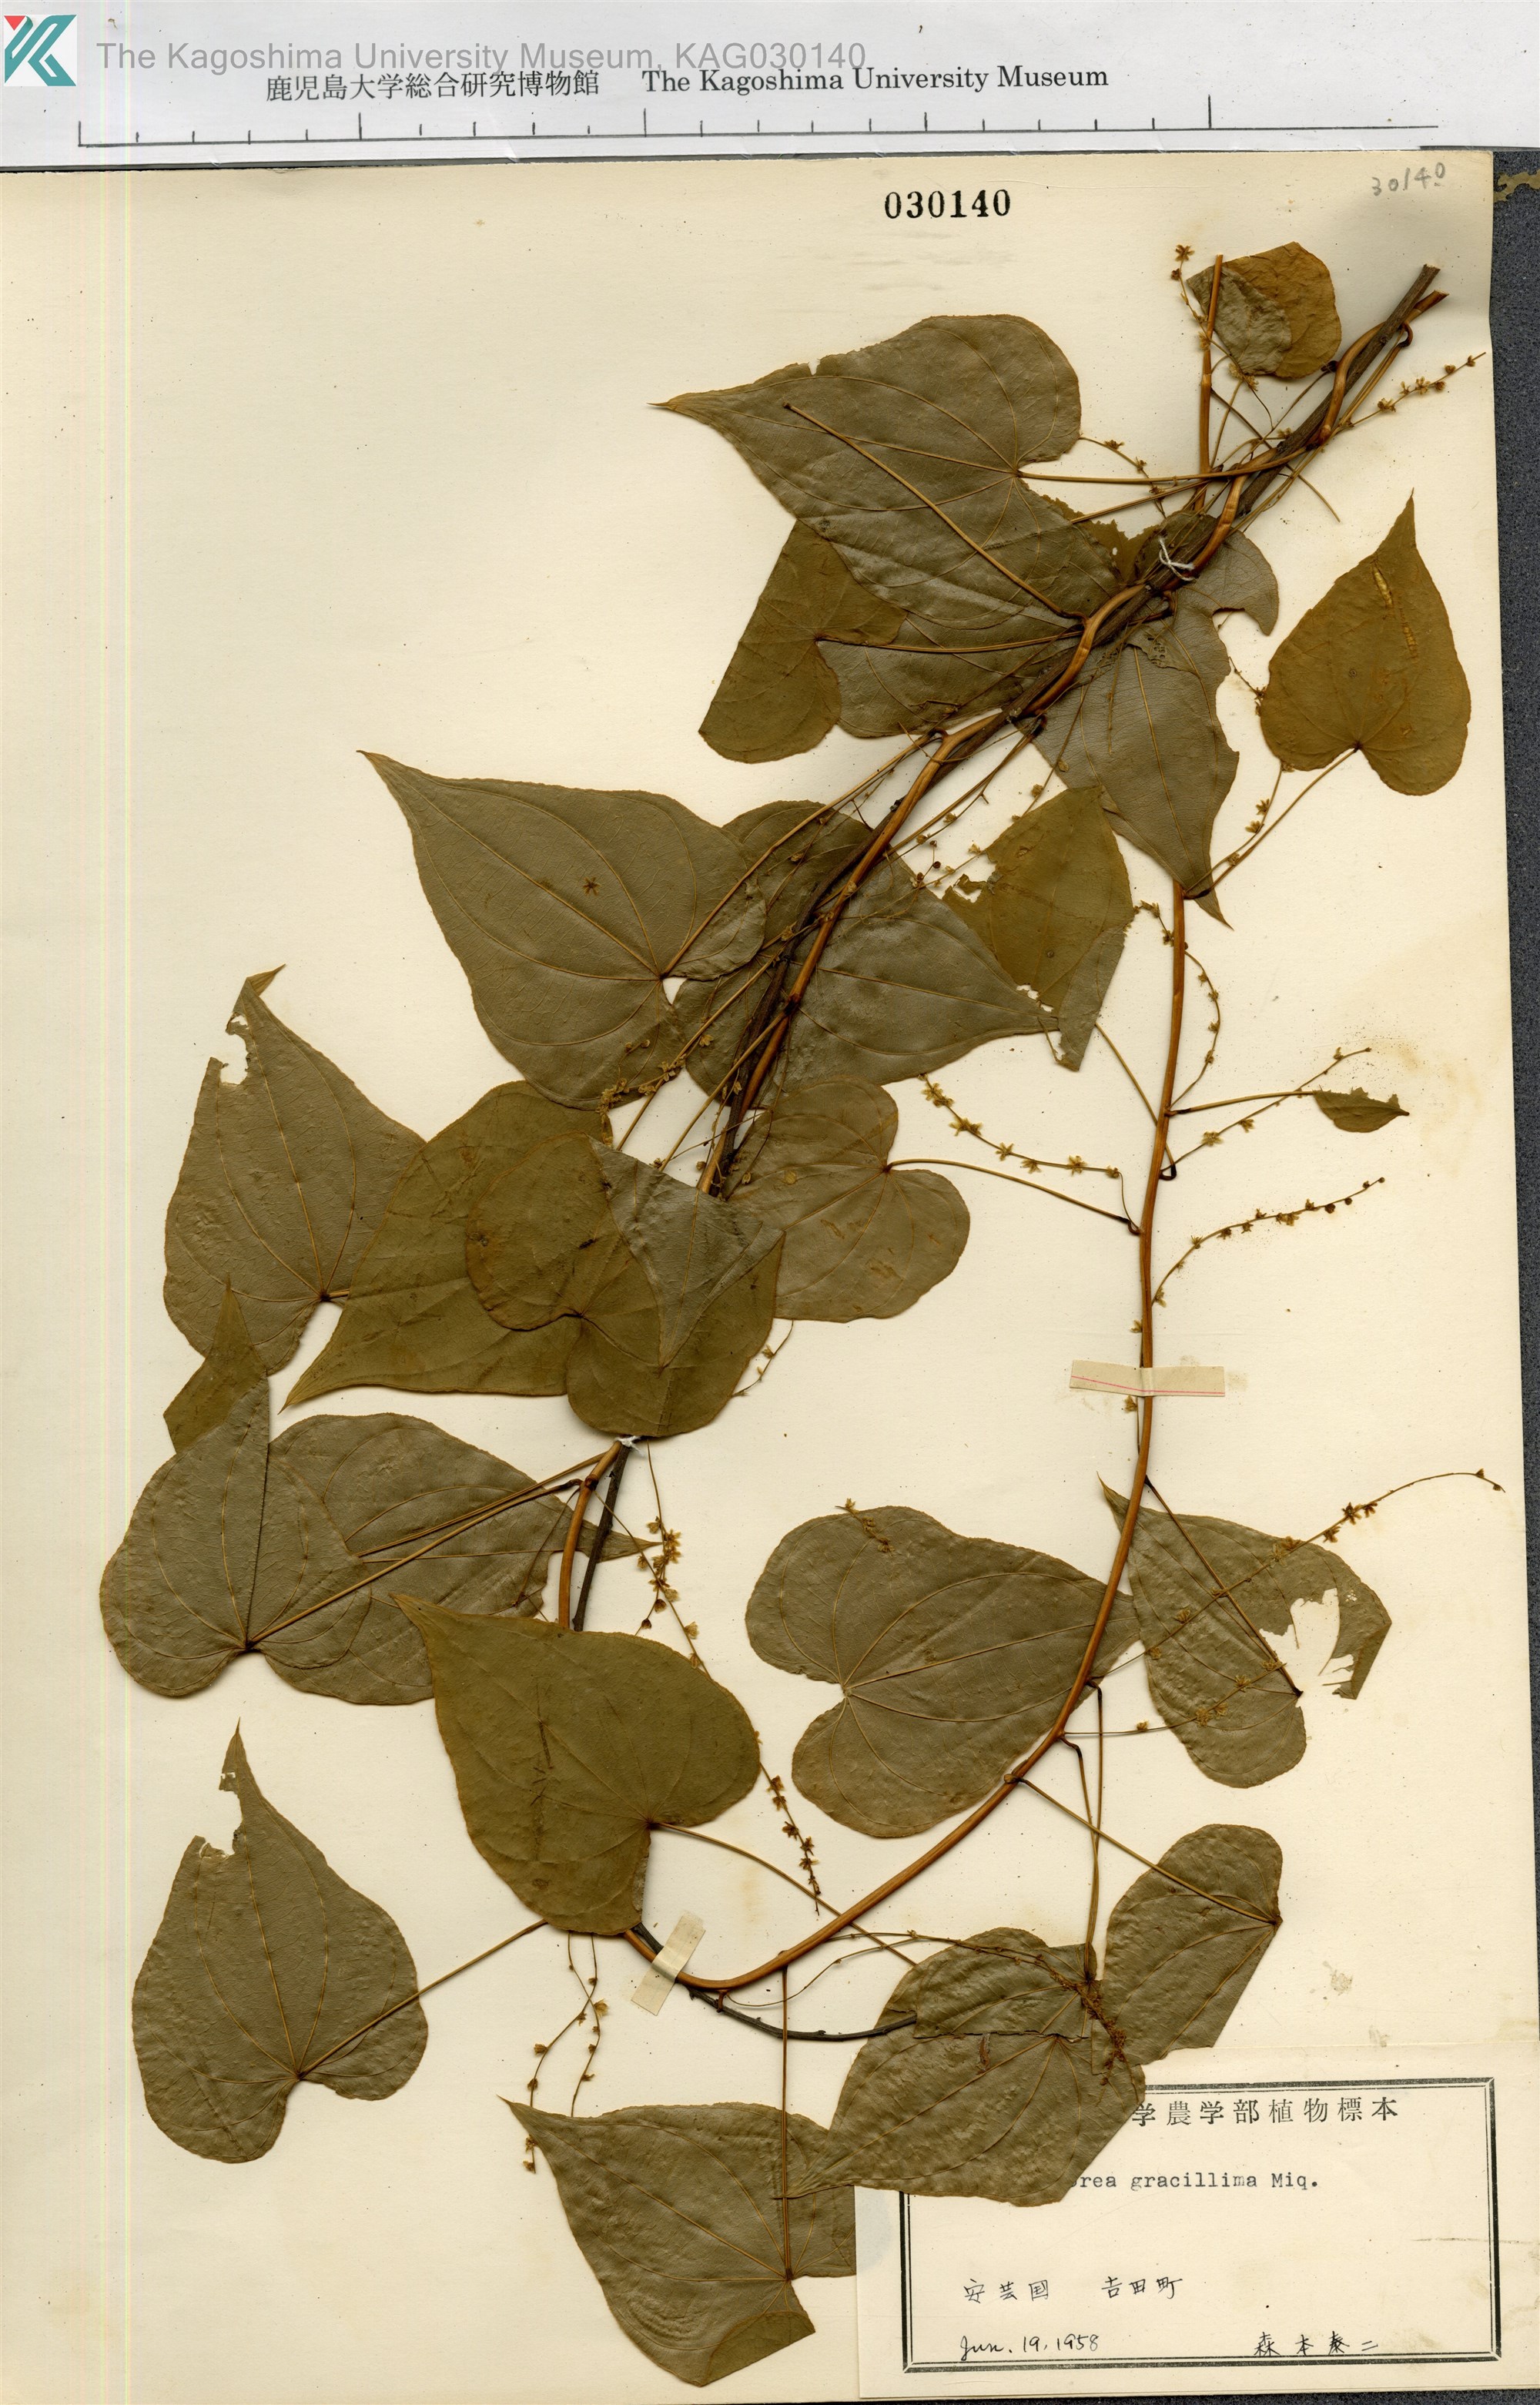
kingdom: Plantae
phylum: Tracheophyta
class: Liliopsida
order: Dioscoreales
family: Dioscoreaceae
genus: Dioscorea
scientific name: Dioscorea gracillima
